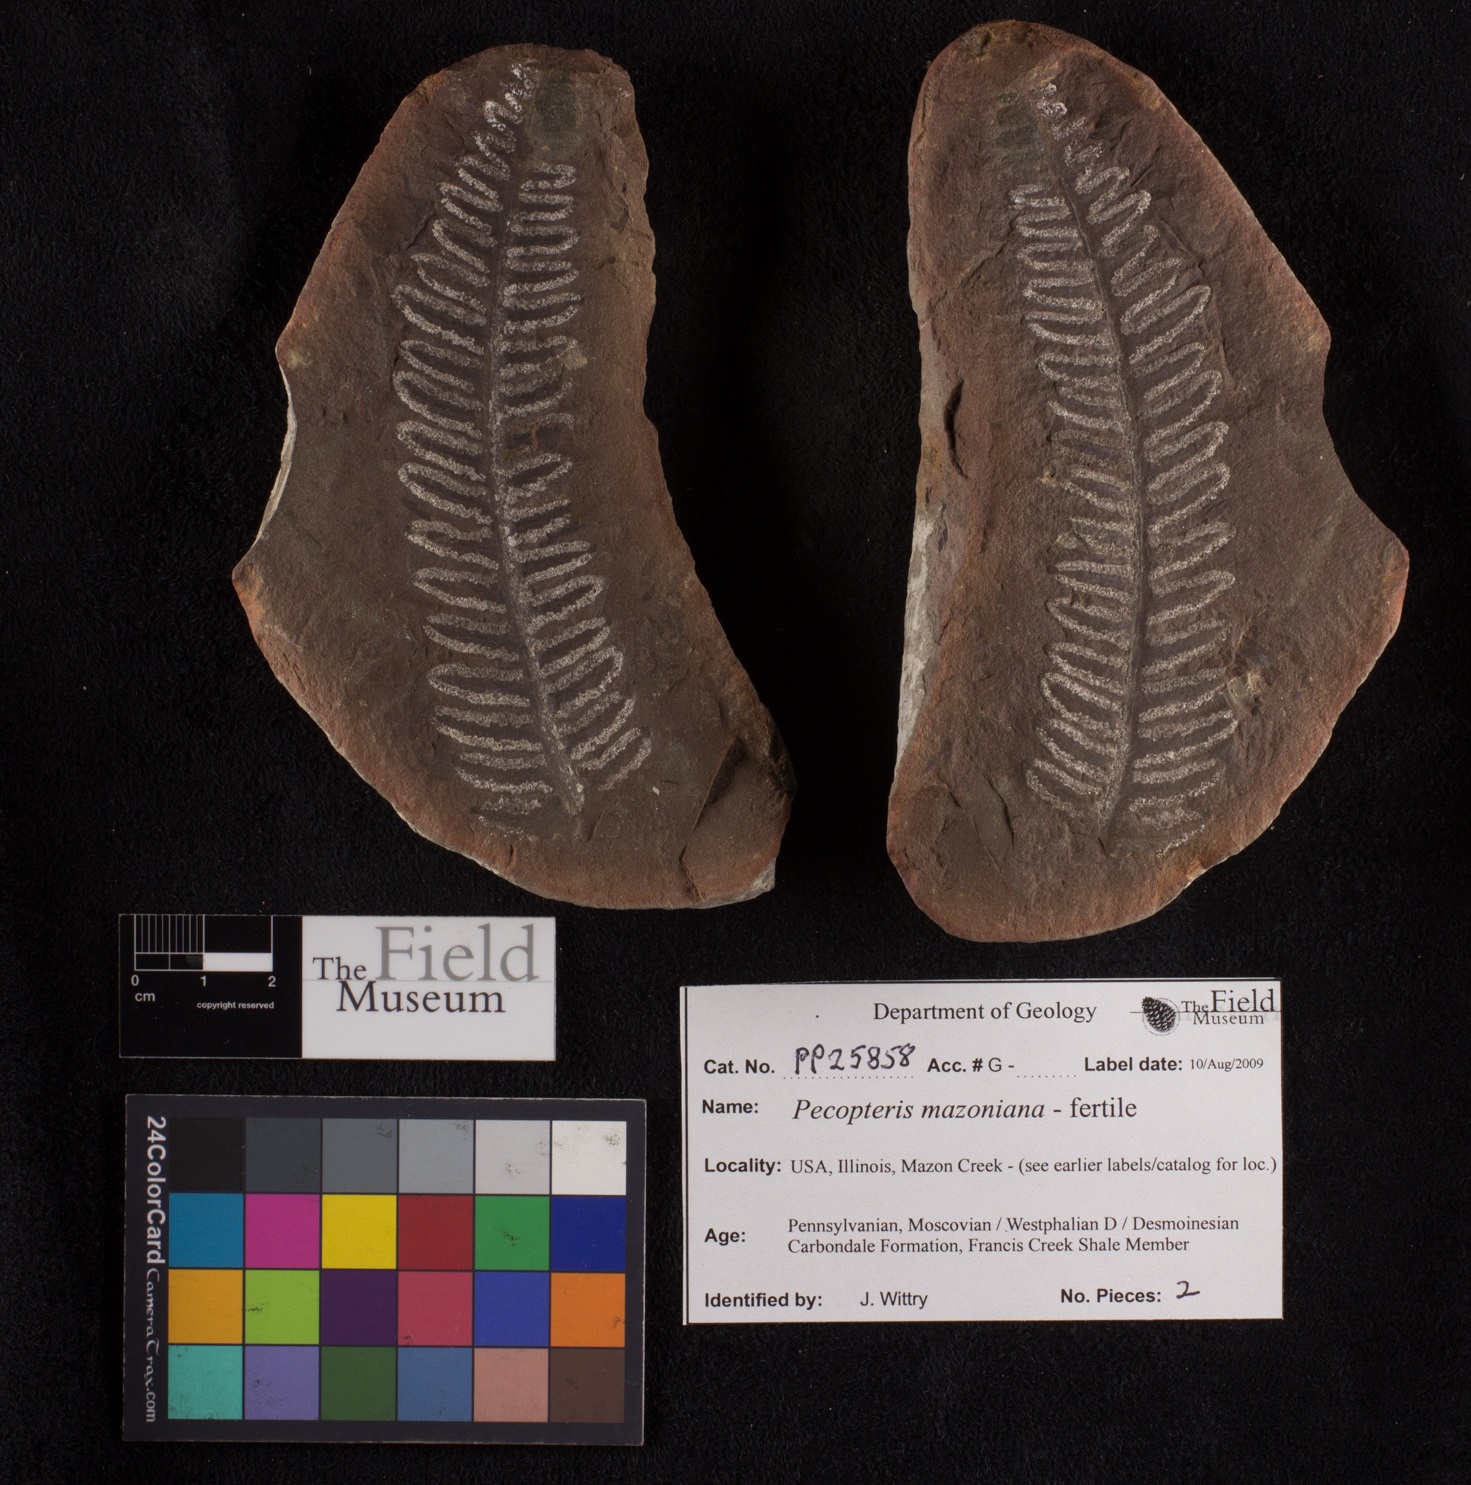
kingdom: Plantae
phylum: Tracheophyta
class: Polypodiopsida
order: Marattiales
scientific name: Marattiales
